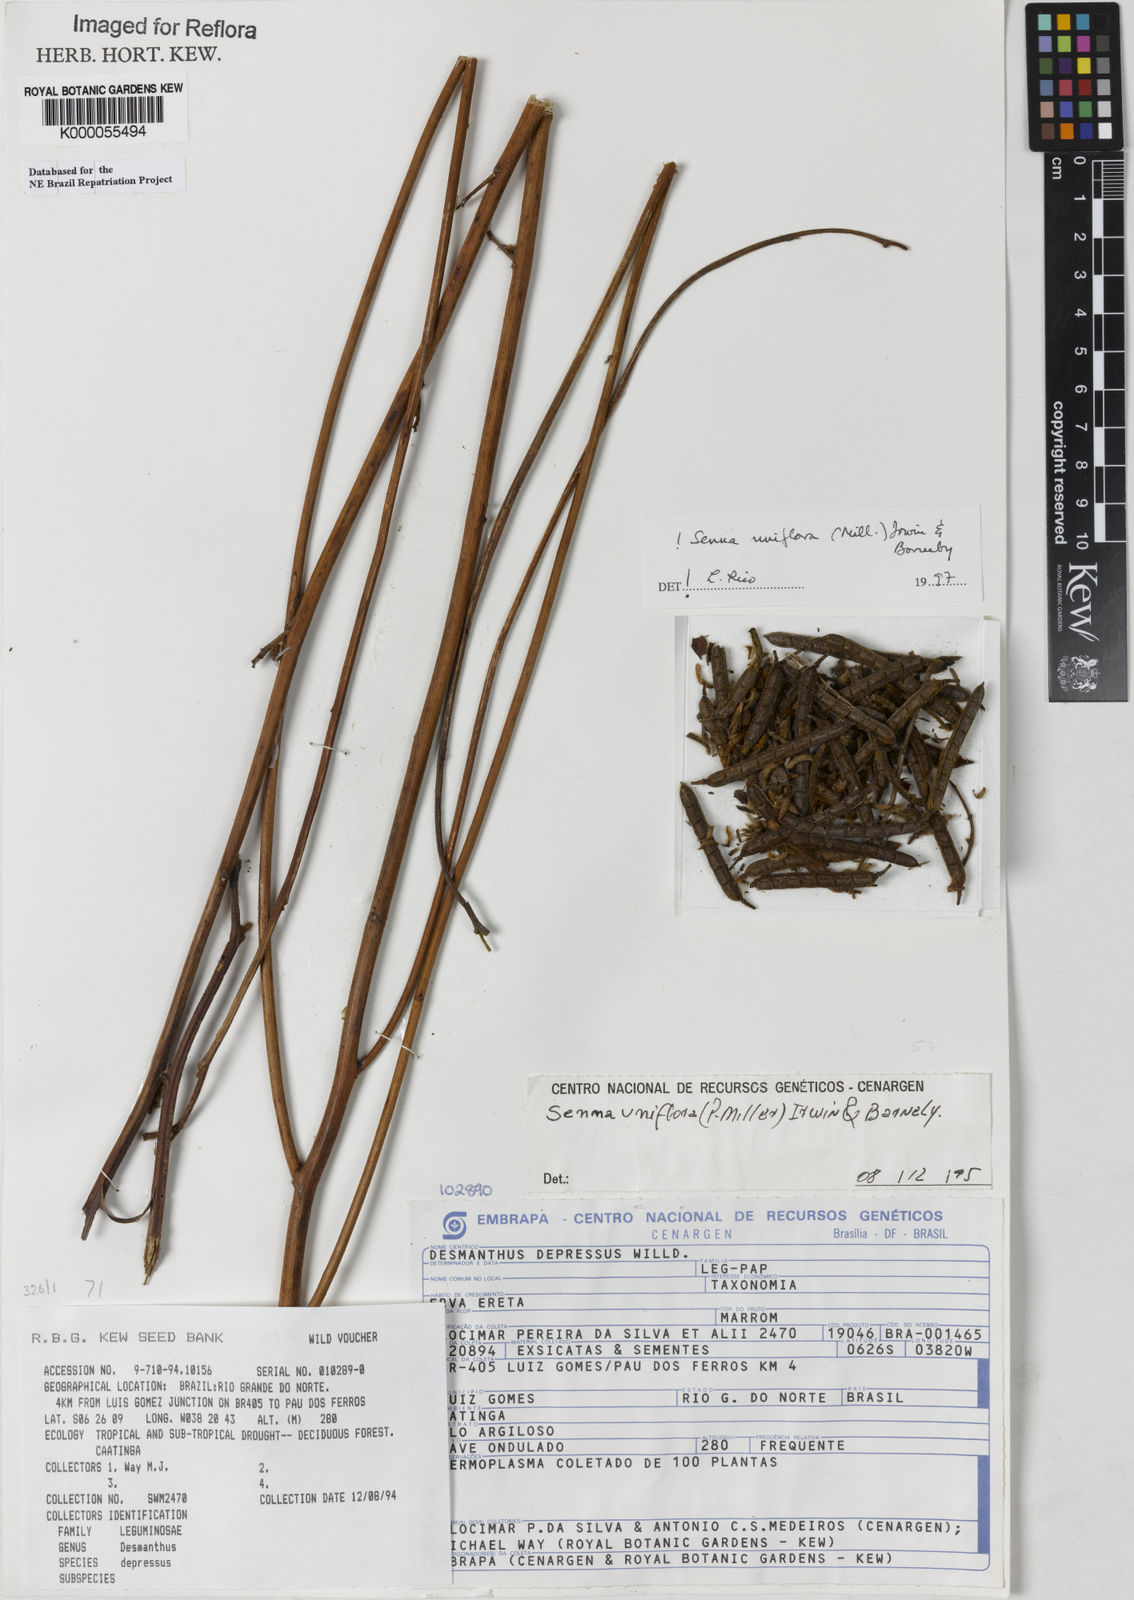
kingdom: Plantae
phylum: Tracheophyta
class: Magnoliopsida
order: Fabales
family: Fabaceae
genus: Senna
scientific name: Senna uniflora
